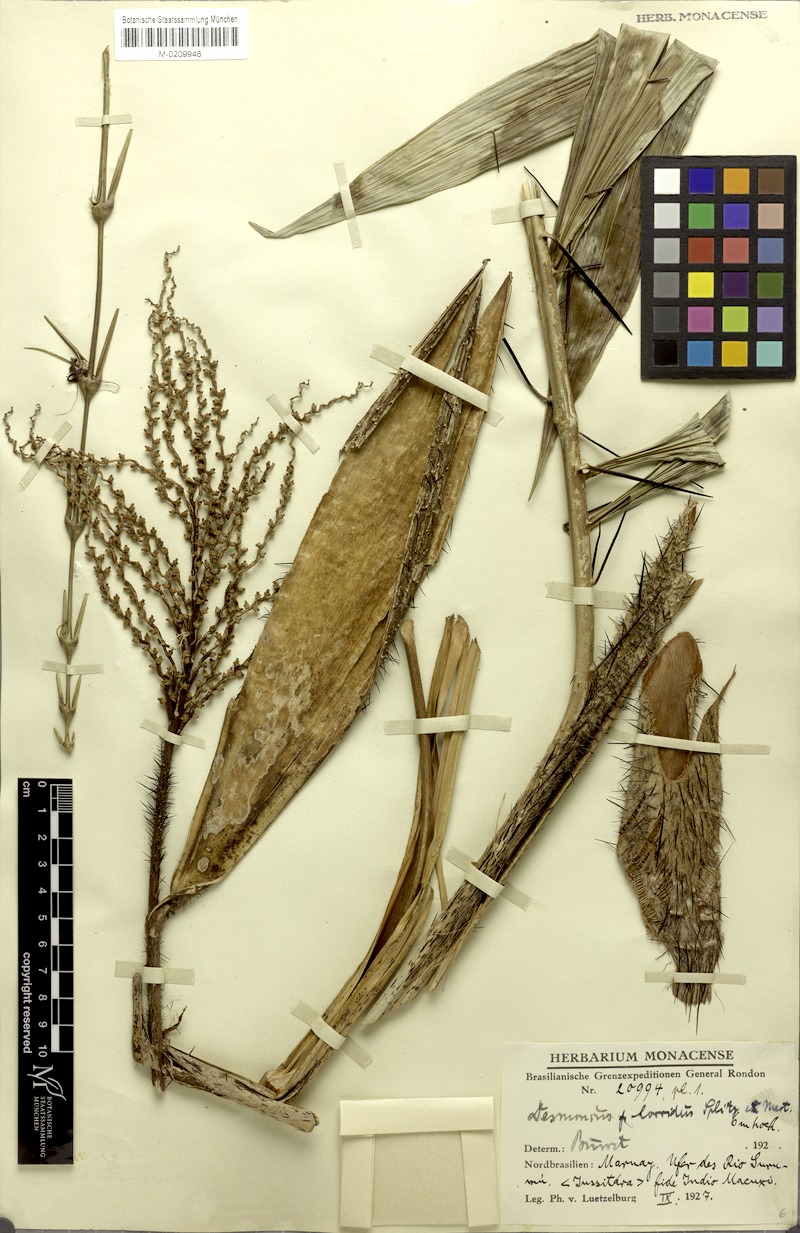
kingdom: Plantae
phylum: Tracheophyta
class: Liliopsida
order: Arecales
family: Arecaceae
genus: Desmoncus
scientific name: Desmoncus orthacanthos
